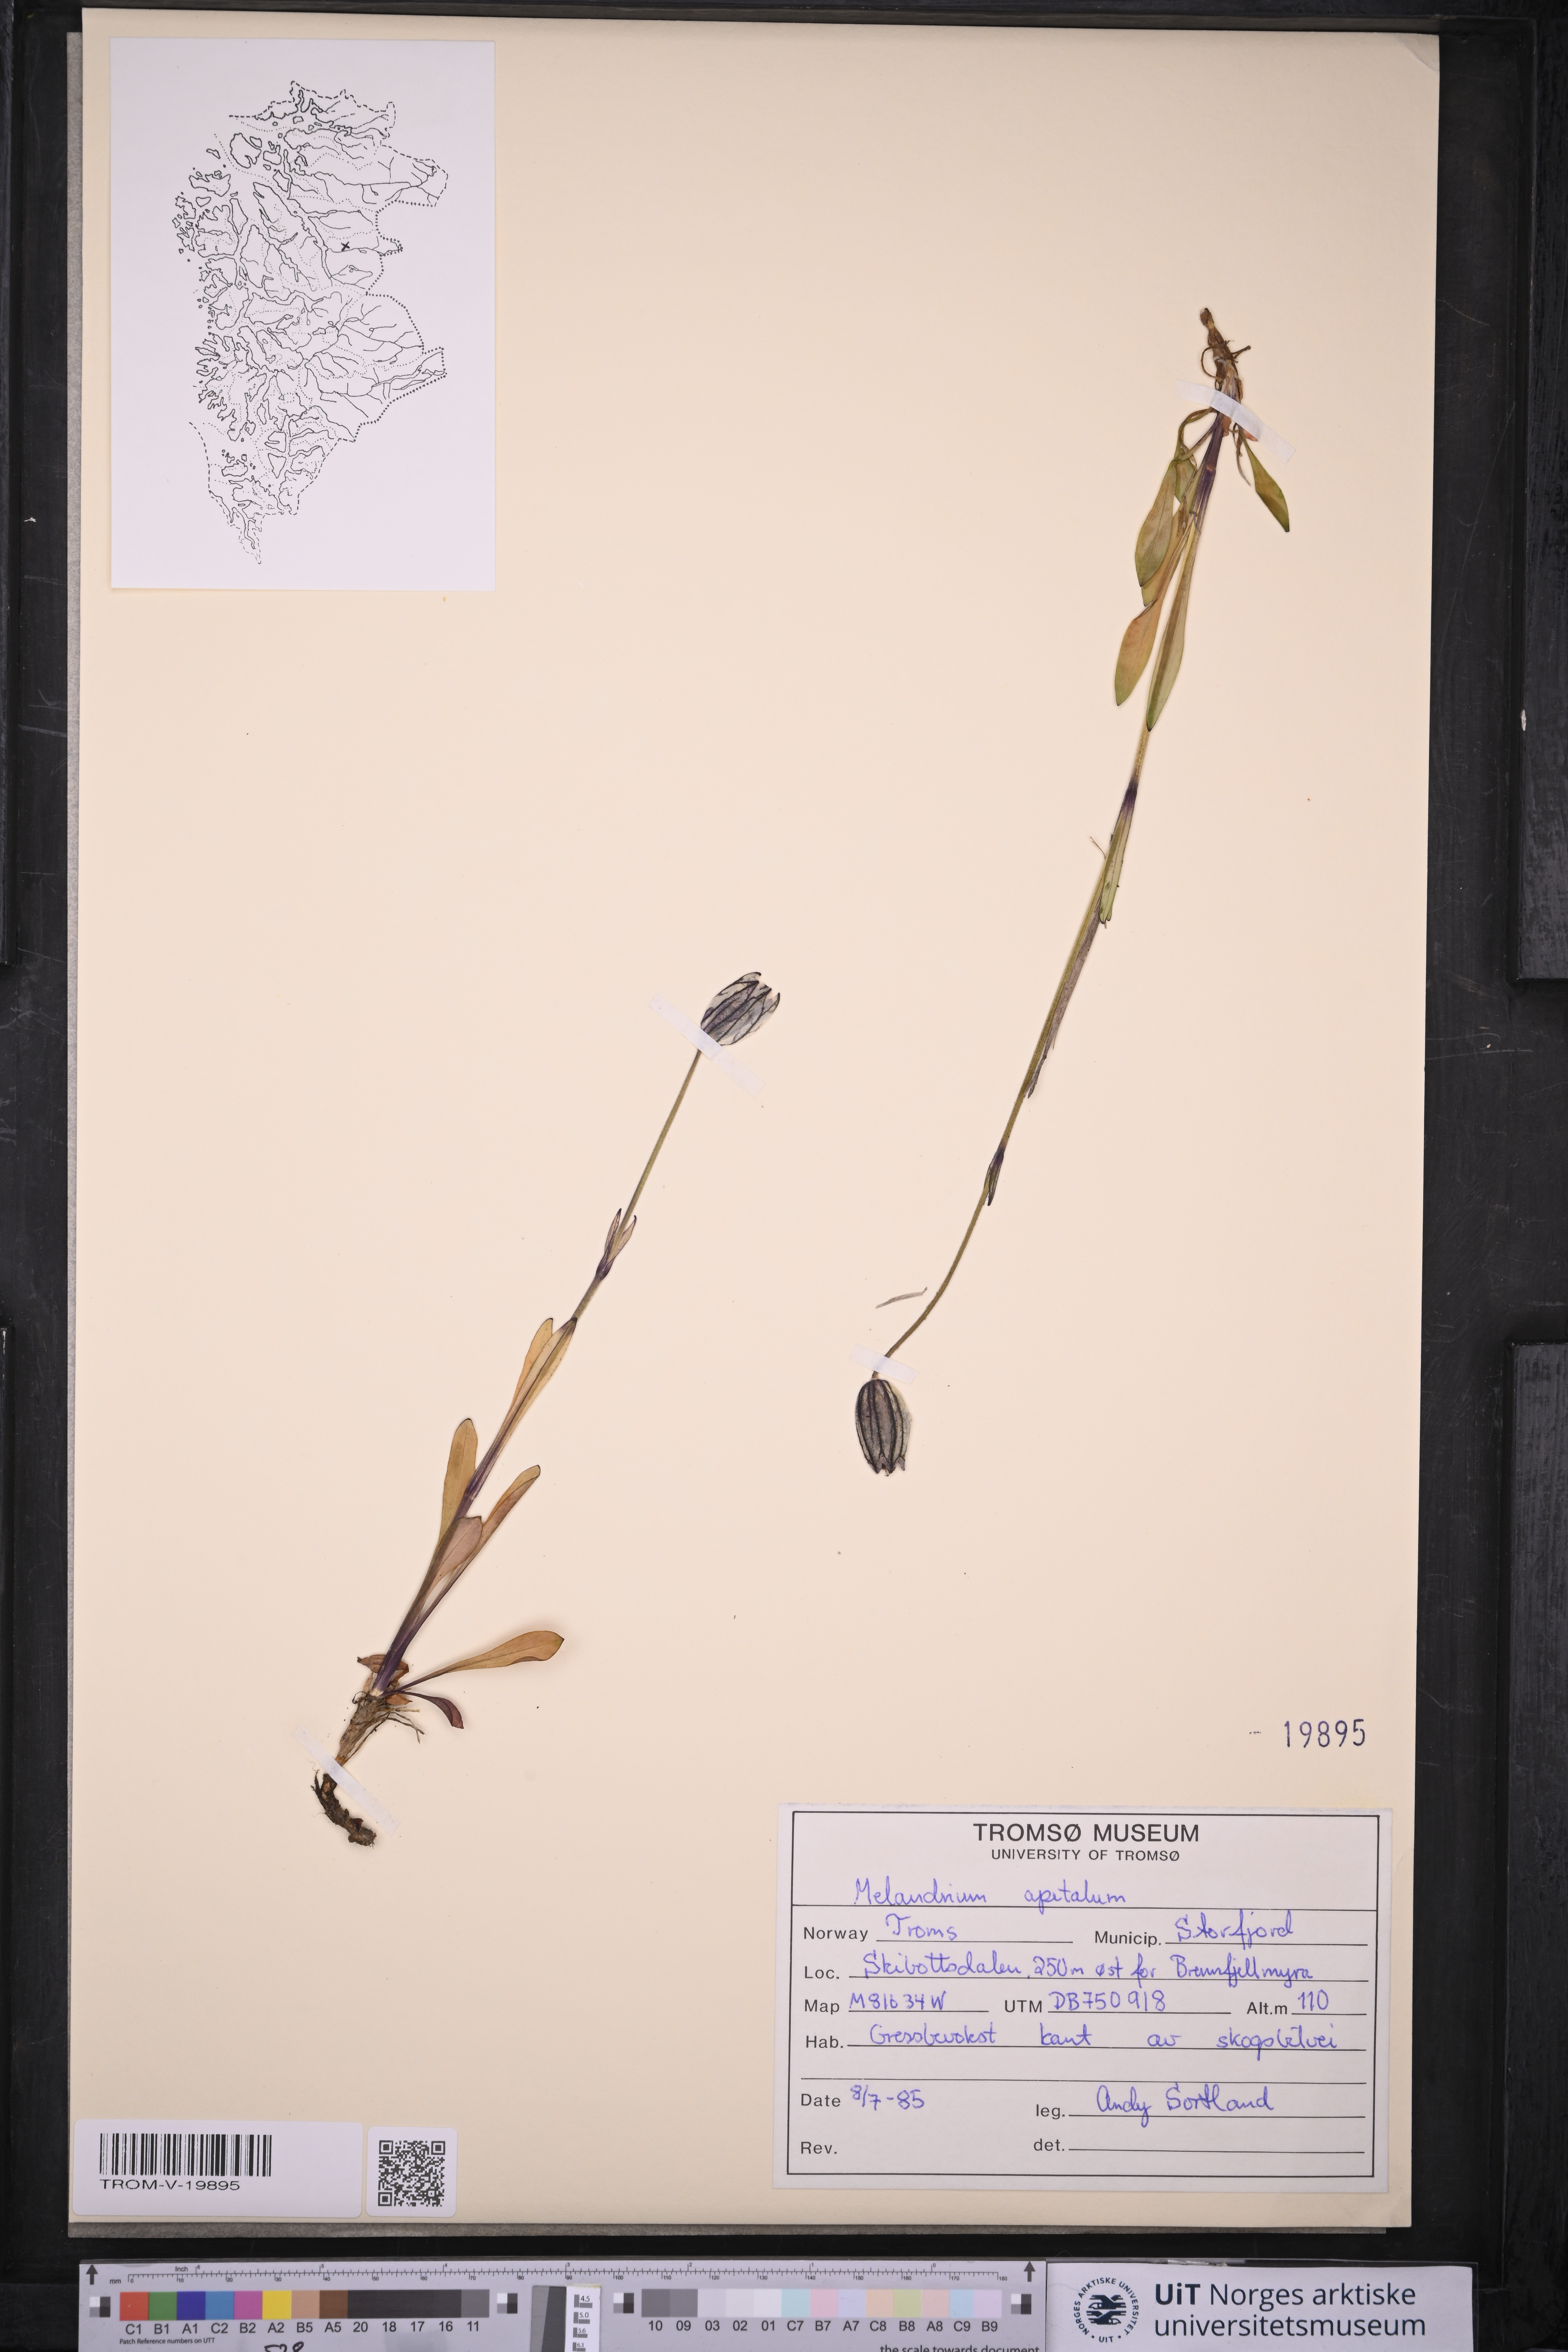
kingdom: Plantae
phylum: Tracheophyta
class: Magnoliopsida
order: Caryophyllales
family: Caryophyllaceae
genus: Silene
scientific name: Silene wahlbergella
